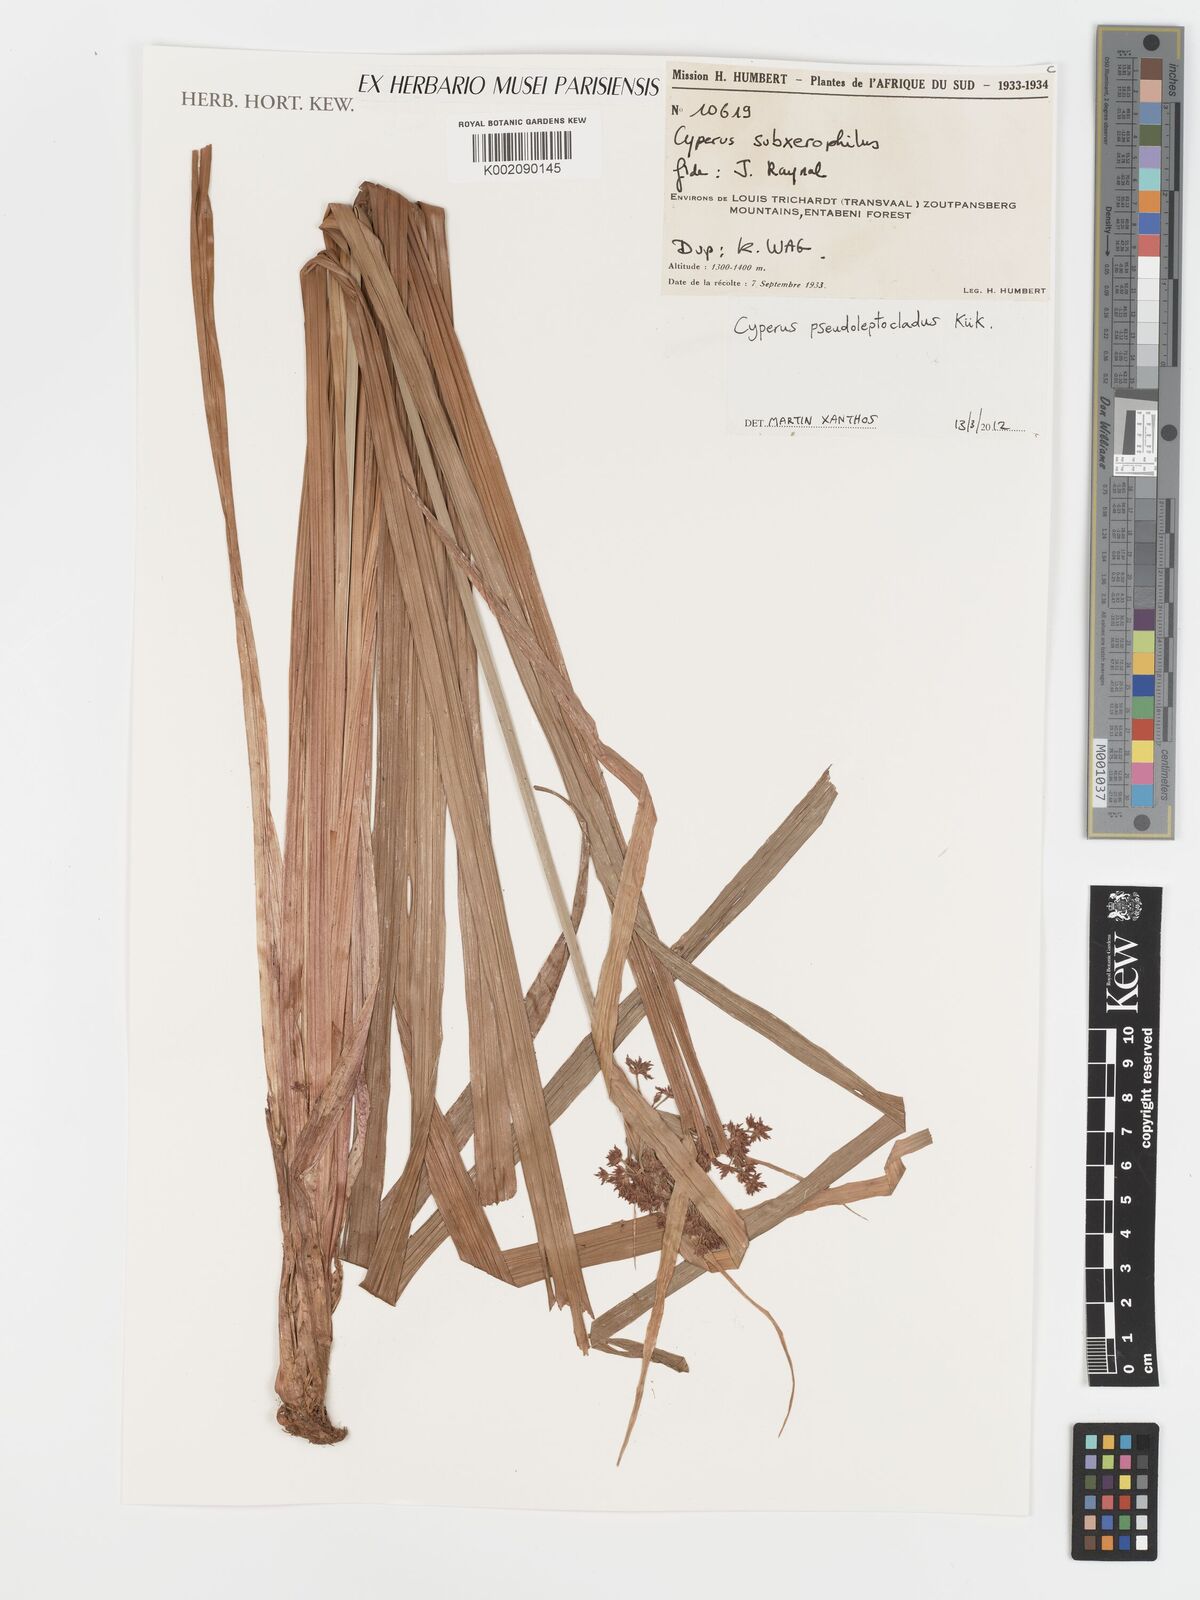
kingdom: Plantae
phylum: Tracheophyta
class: Liliopsida
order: Poales
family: Cyperaceae
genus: Cyperus
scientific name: Cyperus glaucophyllus
